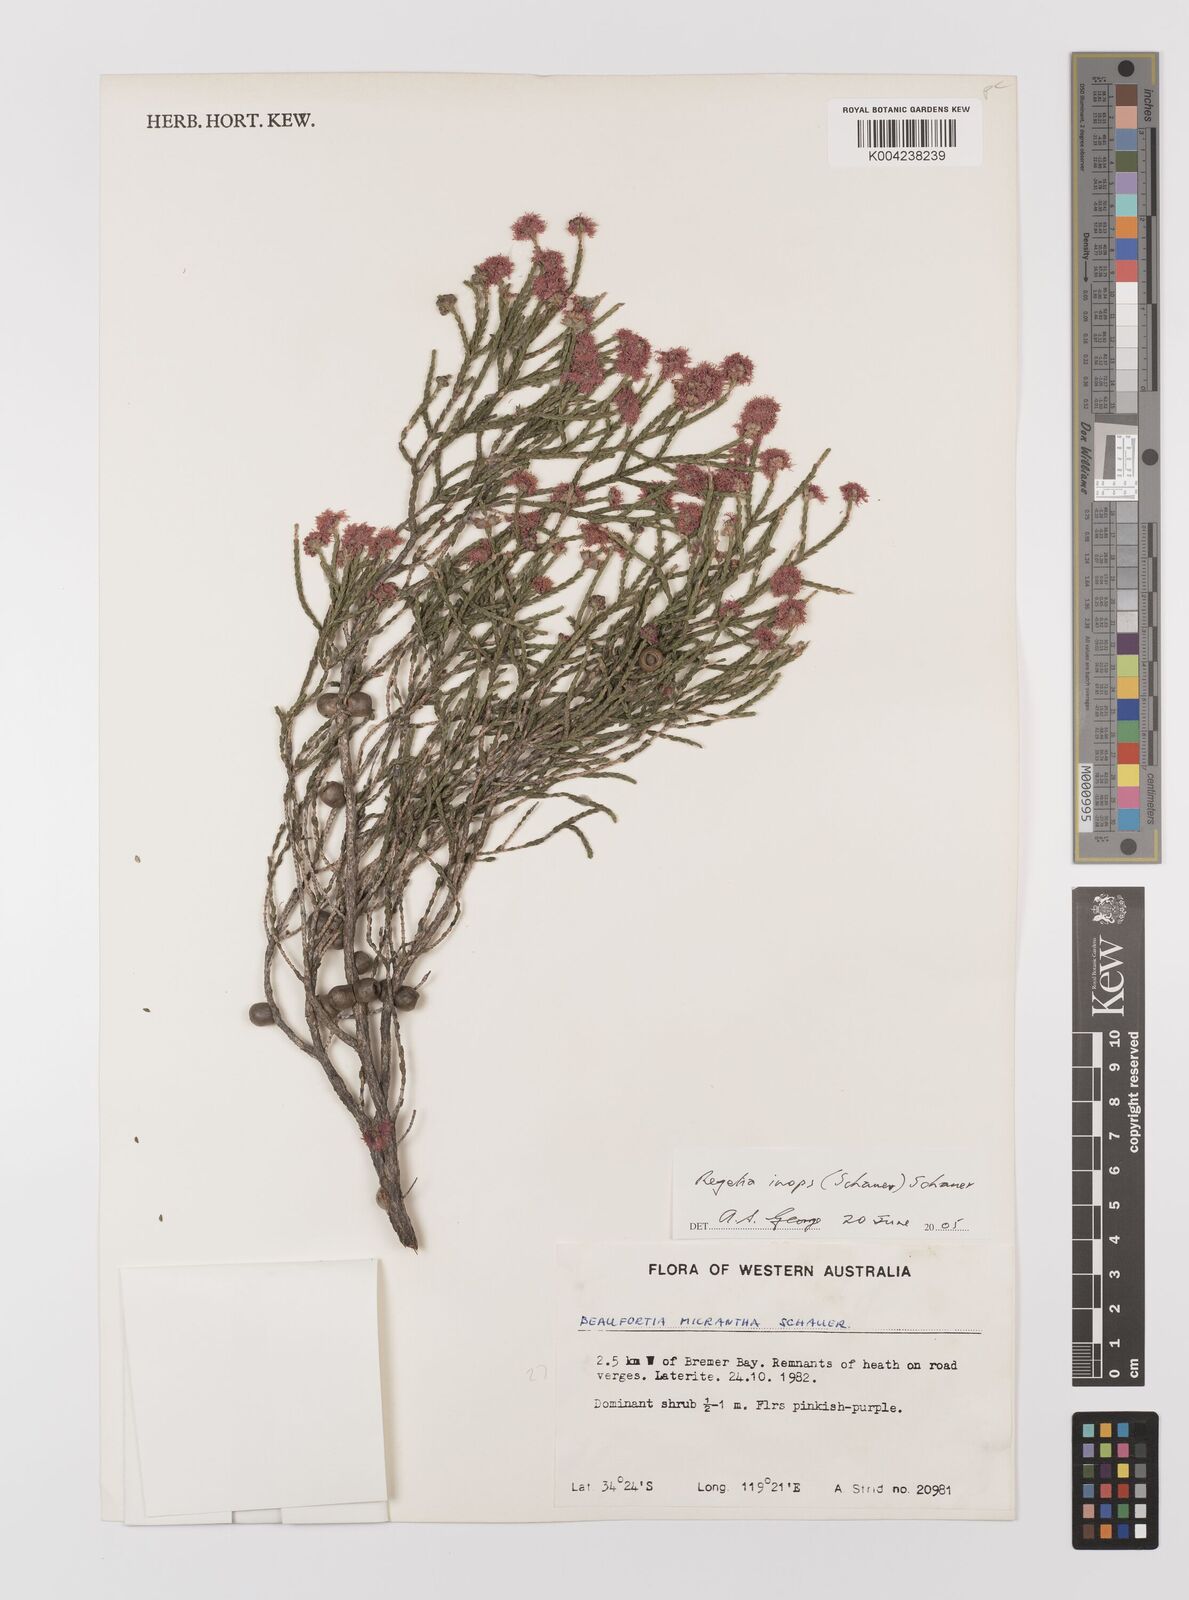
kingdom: Plantae
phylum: Tracheophyta
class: Magnoliopsida
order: Myrtales
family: Myrtaceae
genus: Melaleuca
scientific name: Melaleuca inops
